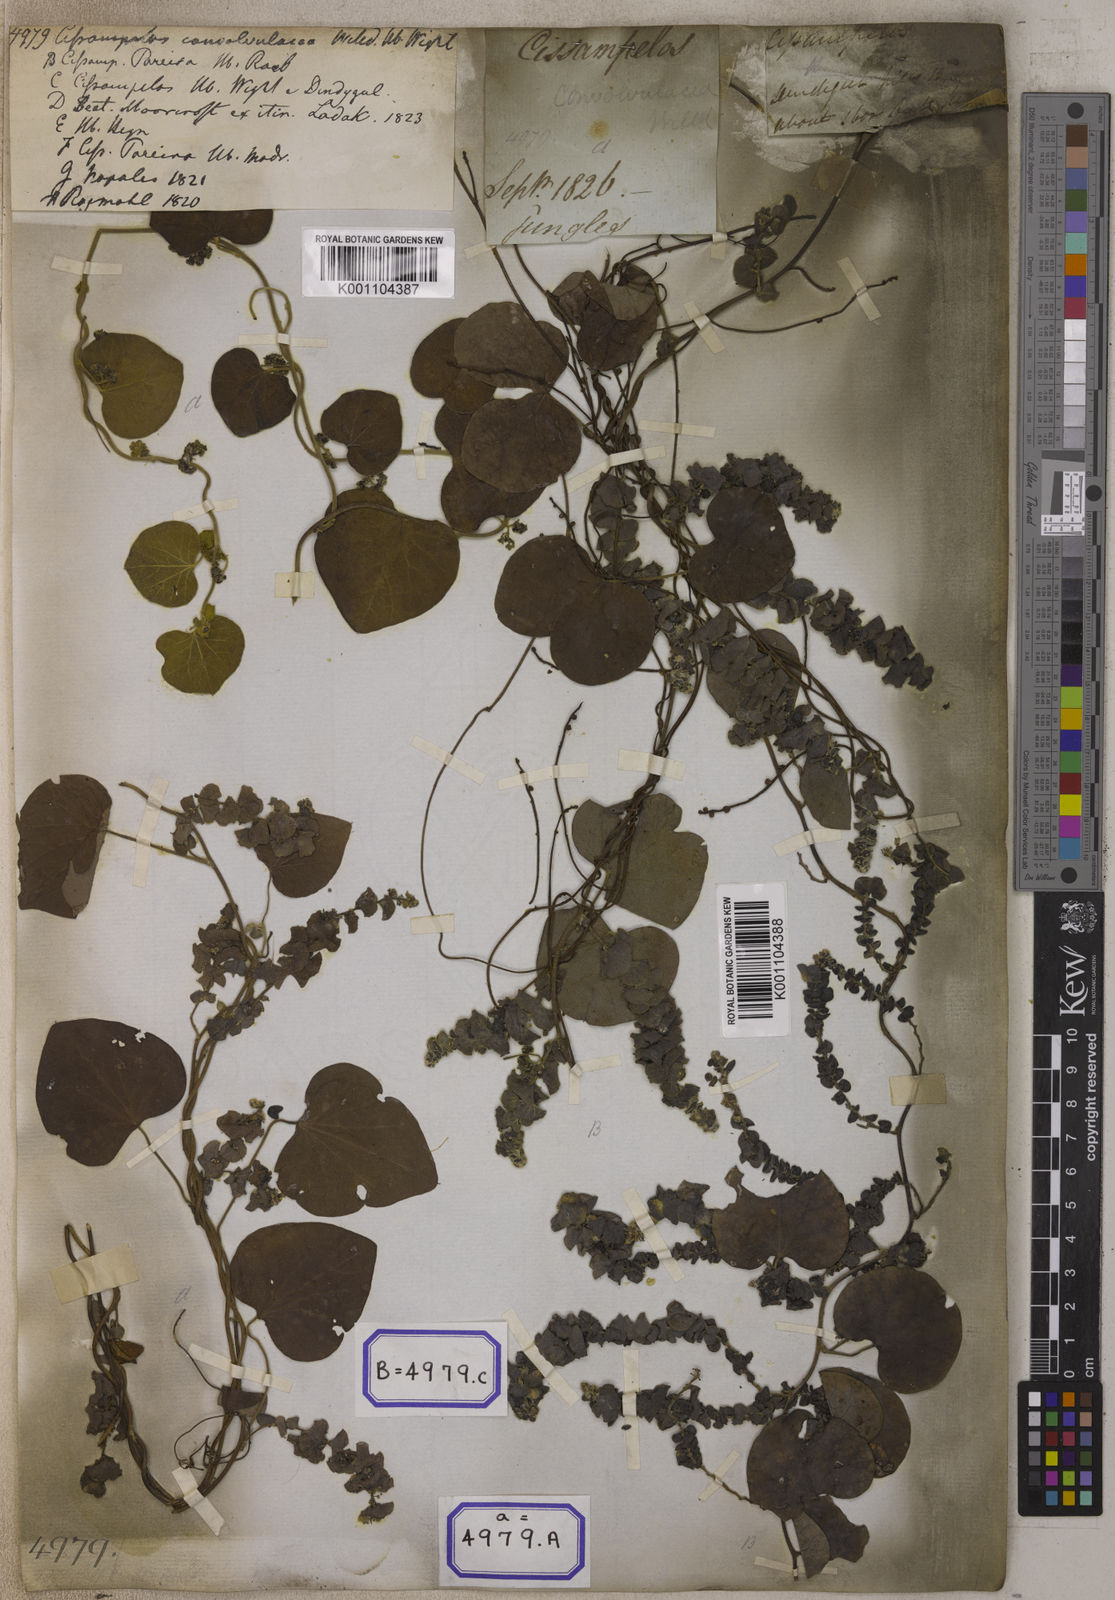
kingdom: Plantae
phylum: Tracheophyta
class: Magnoliopsida
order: Ranunculales
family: Menispermaceae
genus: Cissampelos
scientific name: Cissampelos pareira
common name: Velvetleaf
